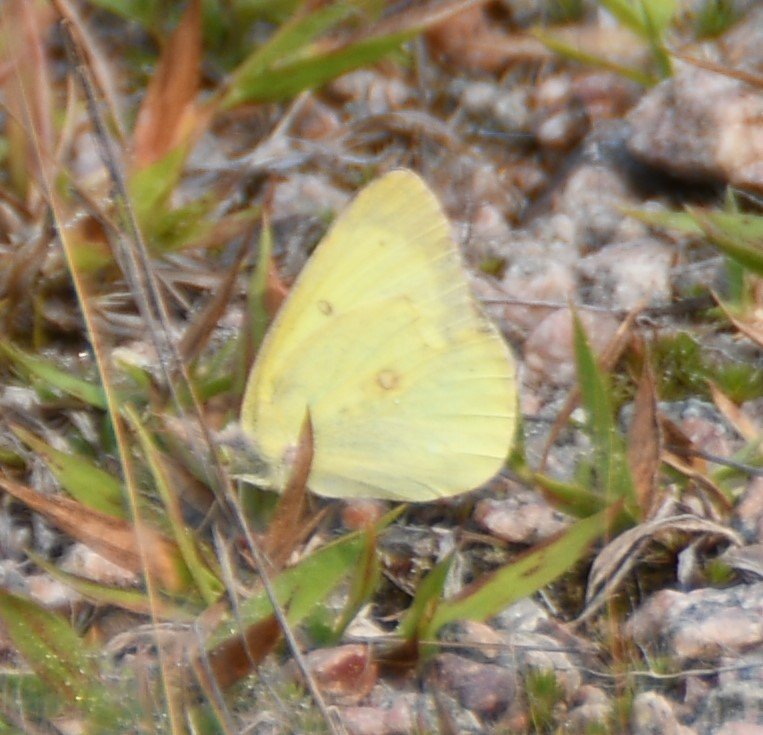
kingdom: Animalia
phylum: Arthropoda
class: Insecta
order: Lepidoptera
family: Pieridae
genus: Colias
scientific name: Colias
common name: Clouded Yellows
